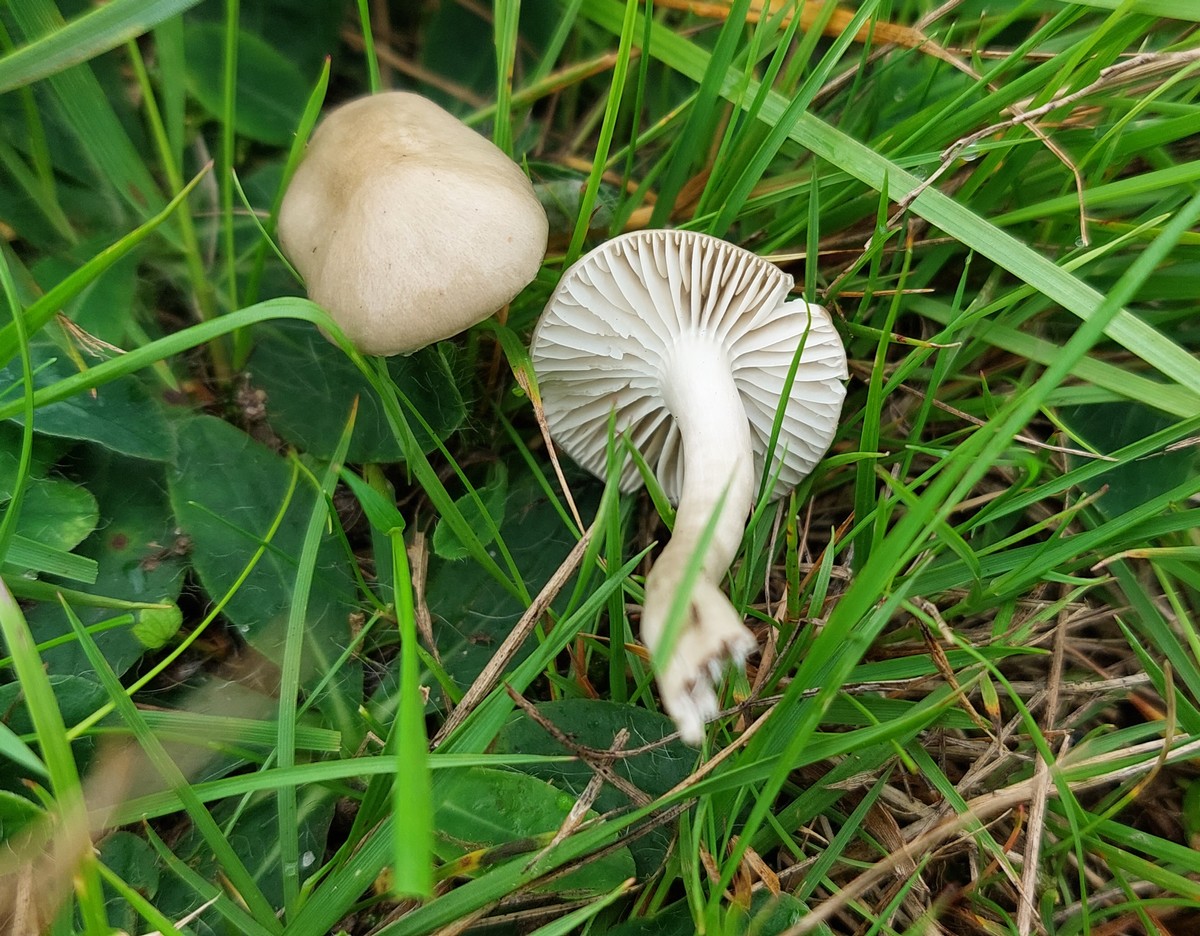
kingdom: Fungi
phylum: Basidiomycota
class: Agaricomycetes
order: Agaricales
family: Hygrophoraceae
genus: Cuphophyllus
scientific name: Cuphophyllus russocoriaceus
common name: ruslæder-vokshat
